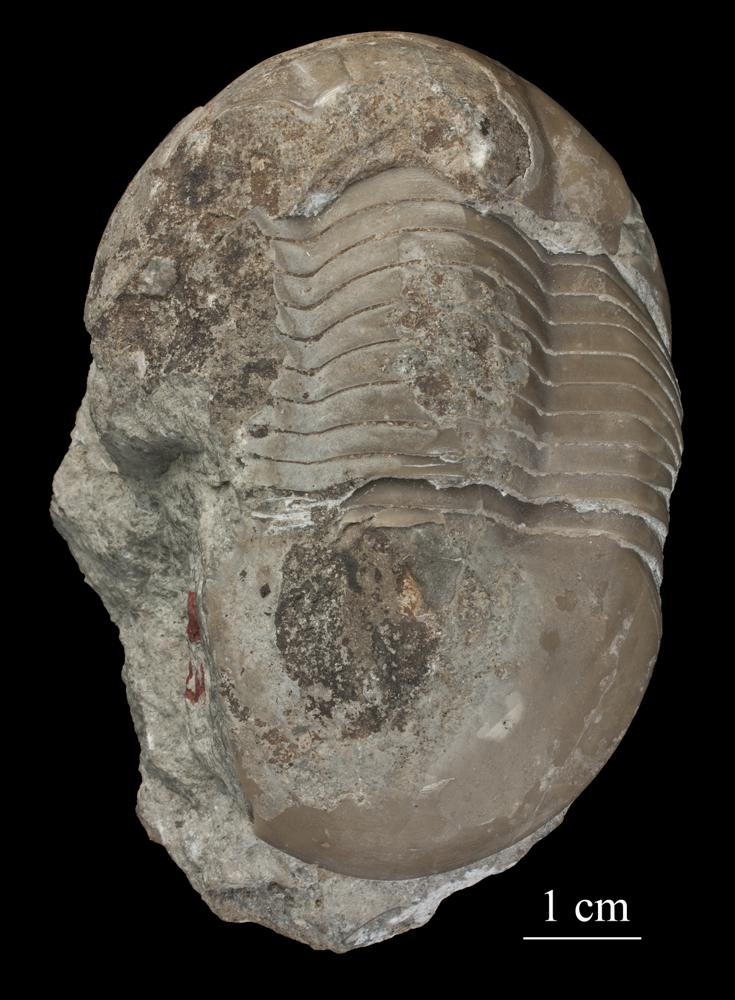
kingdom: Animalia
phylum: Arthropoda
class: Trilobita
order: Corynexochida
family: Illaenidae
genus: Illaenus
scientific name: Illaenus
